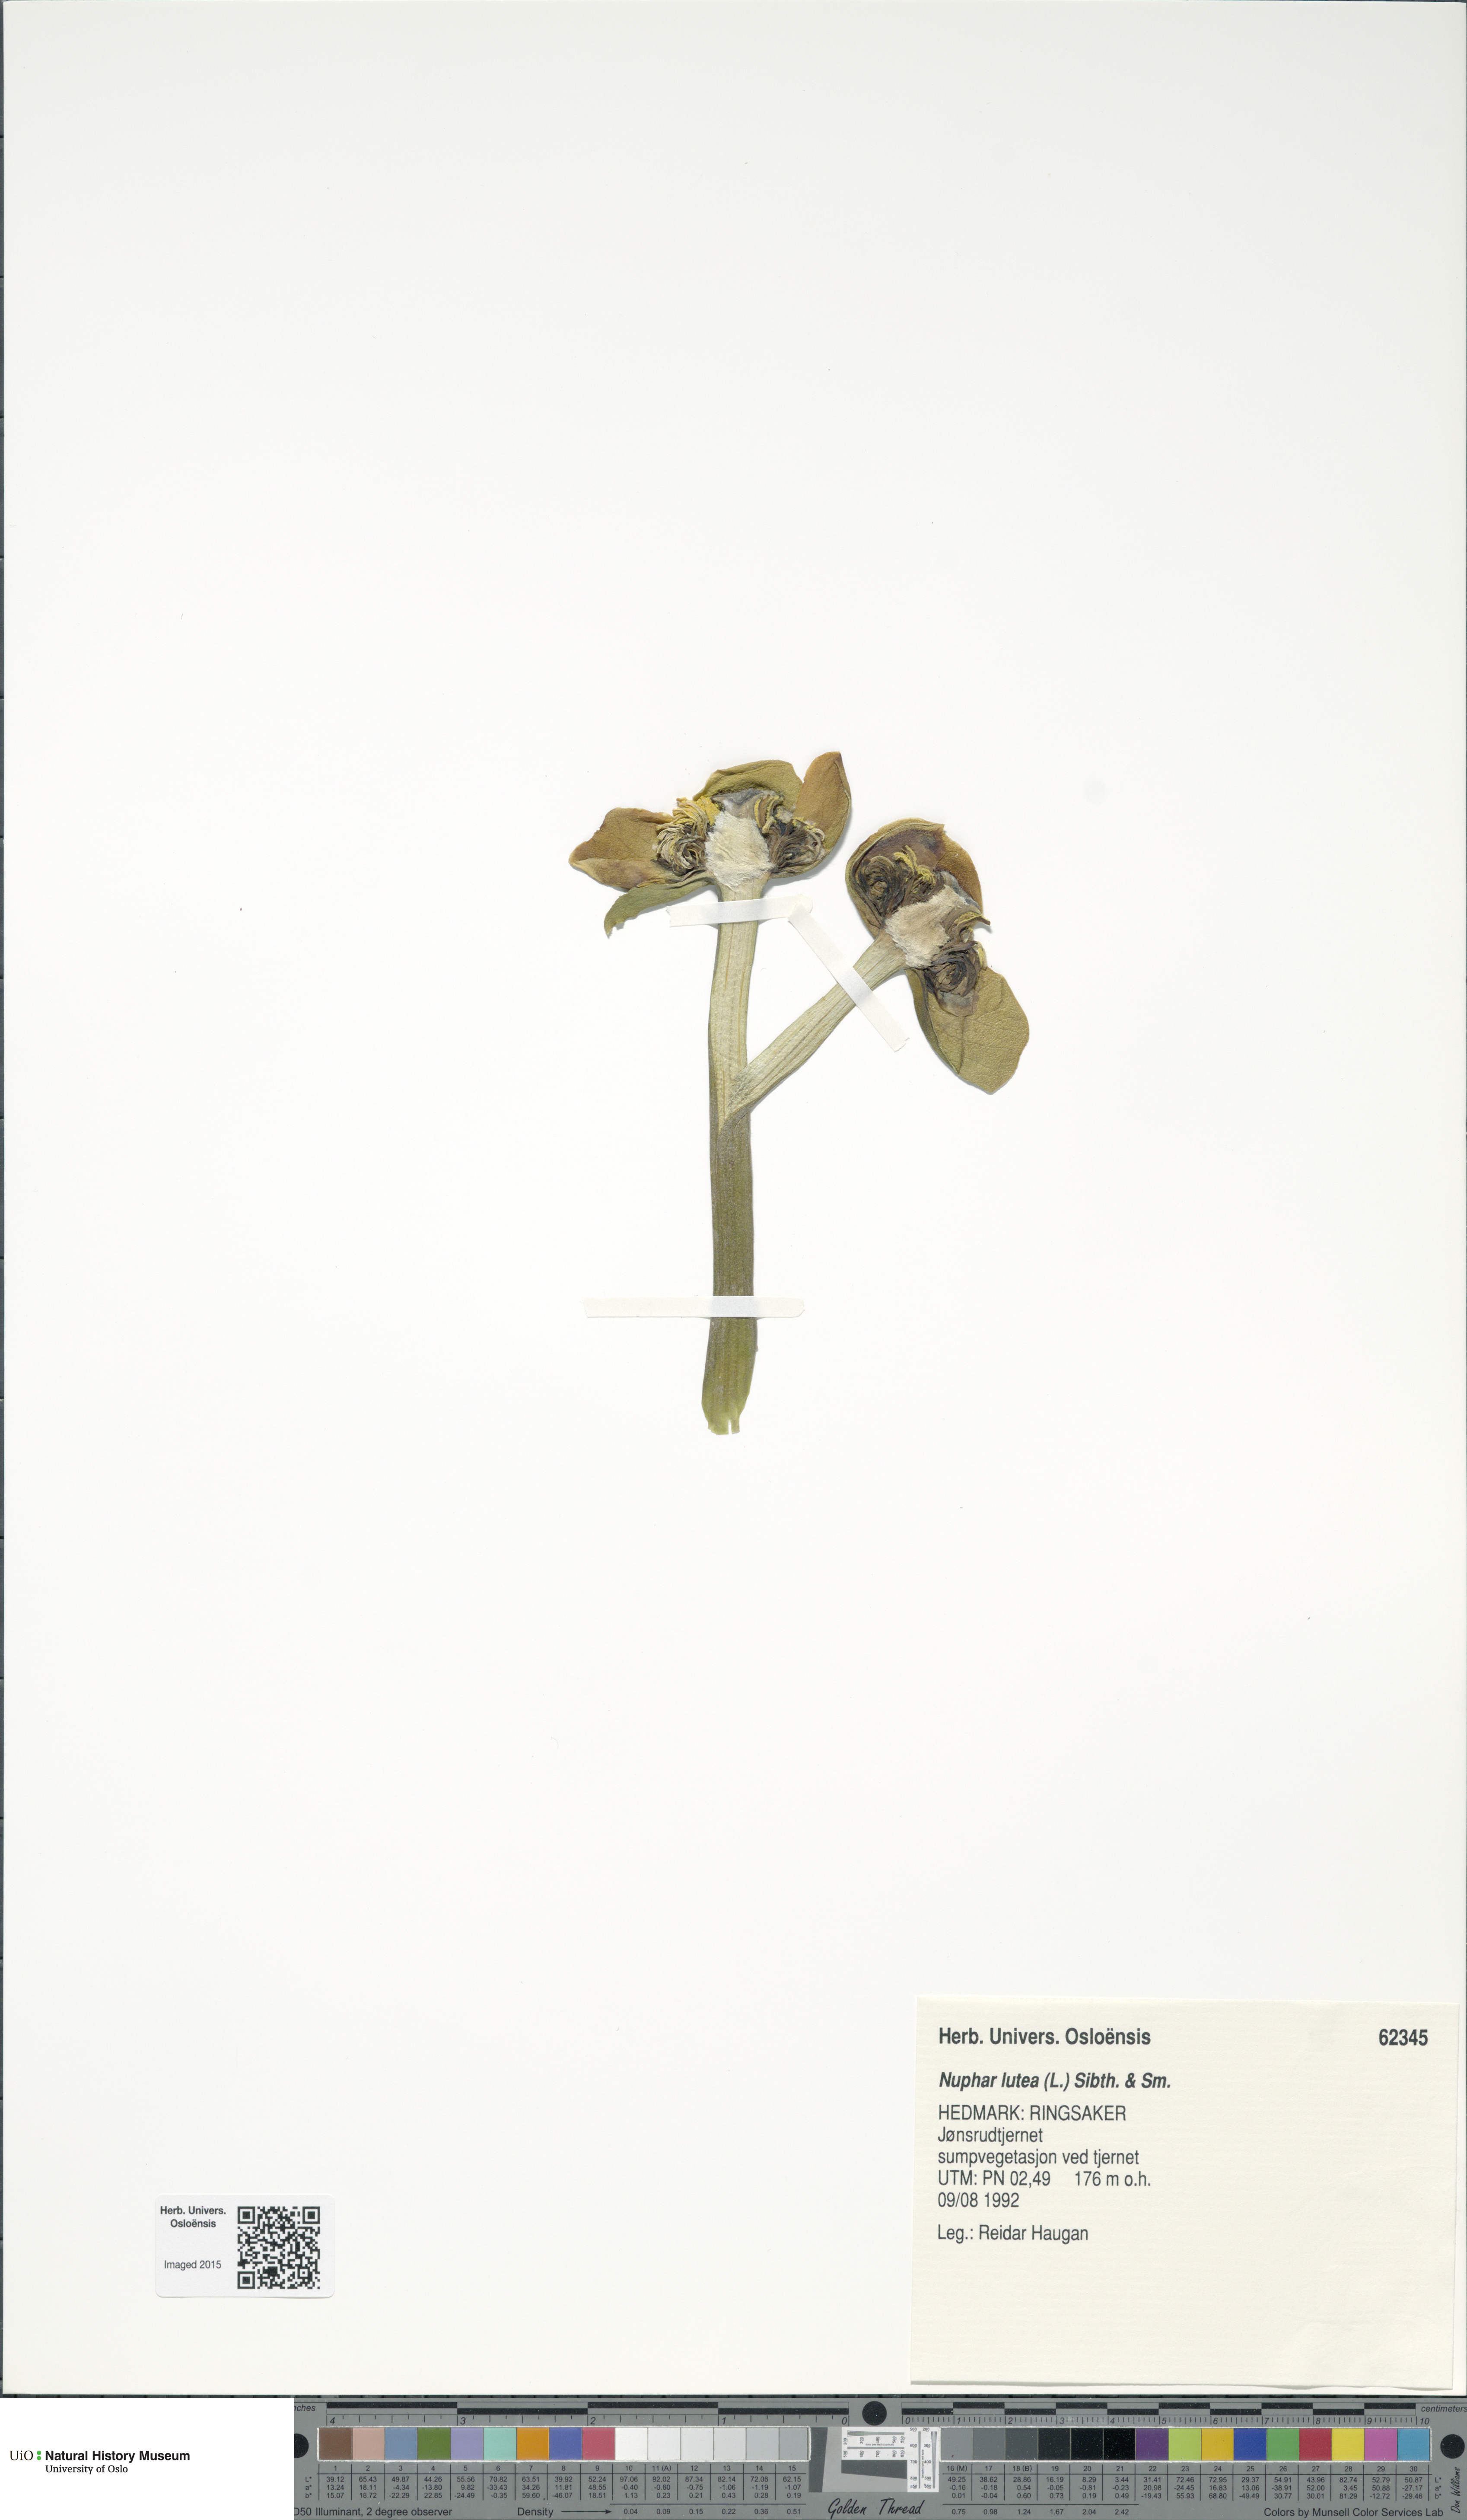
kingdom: Plantae
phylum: Tracheophyta
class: Magnoliopsida
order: Nymphaeales
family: Nymphaeaceae
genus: Nuphar
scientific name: Nuphar lutea
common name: Yellow water-lily
